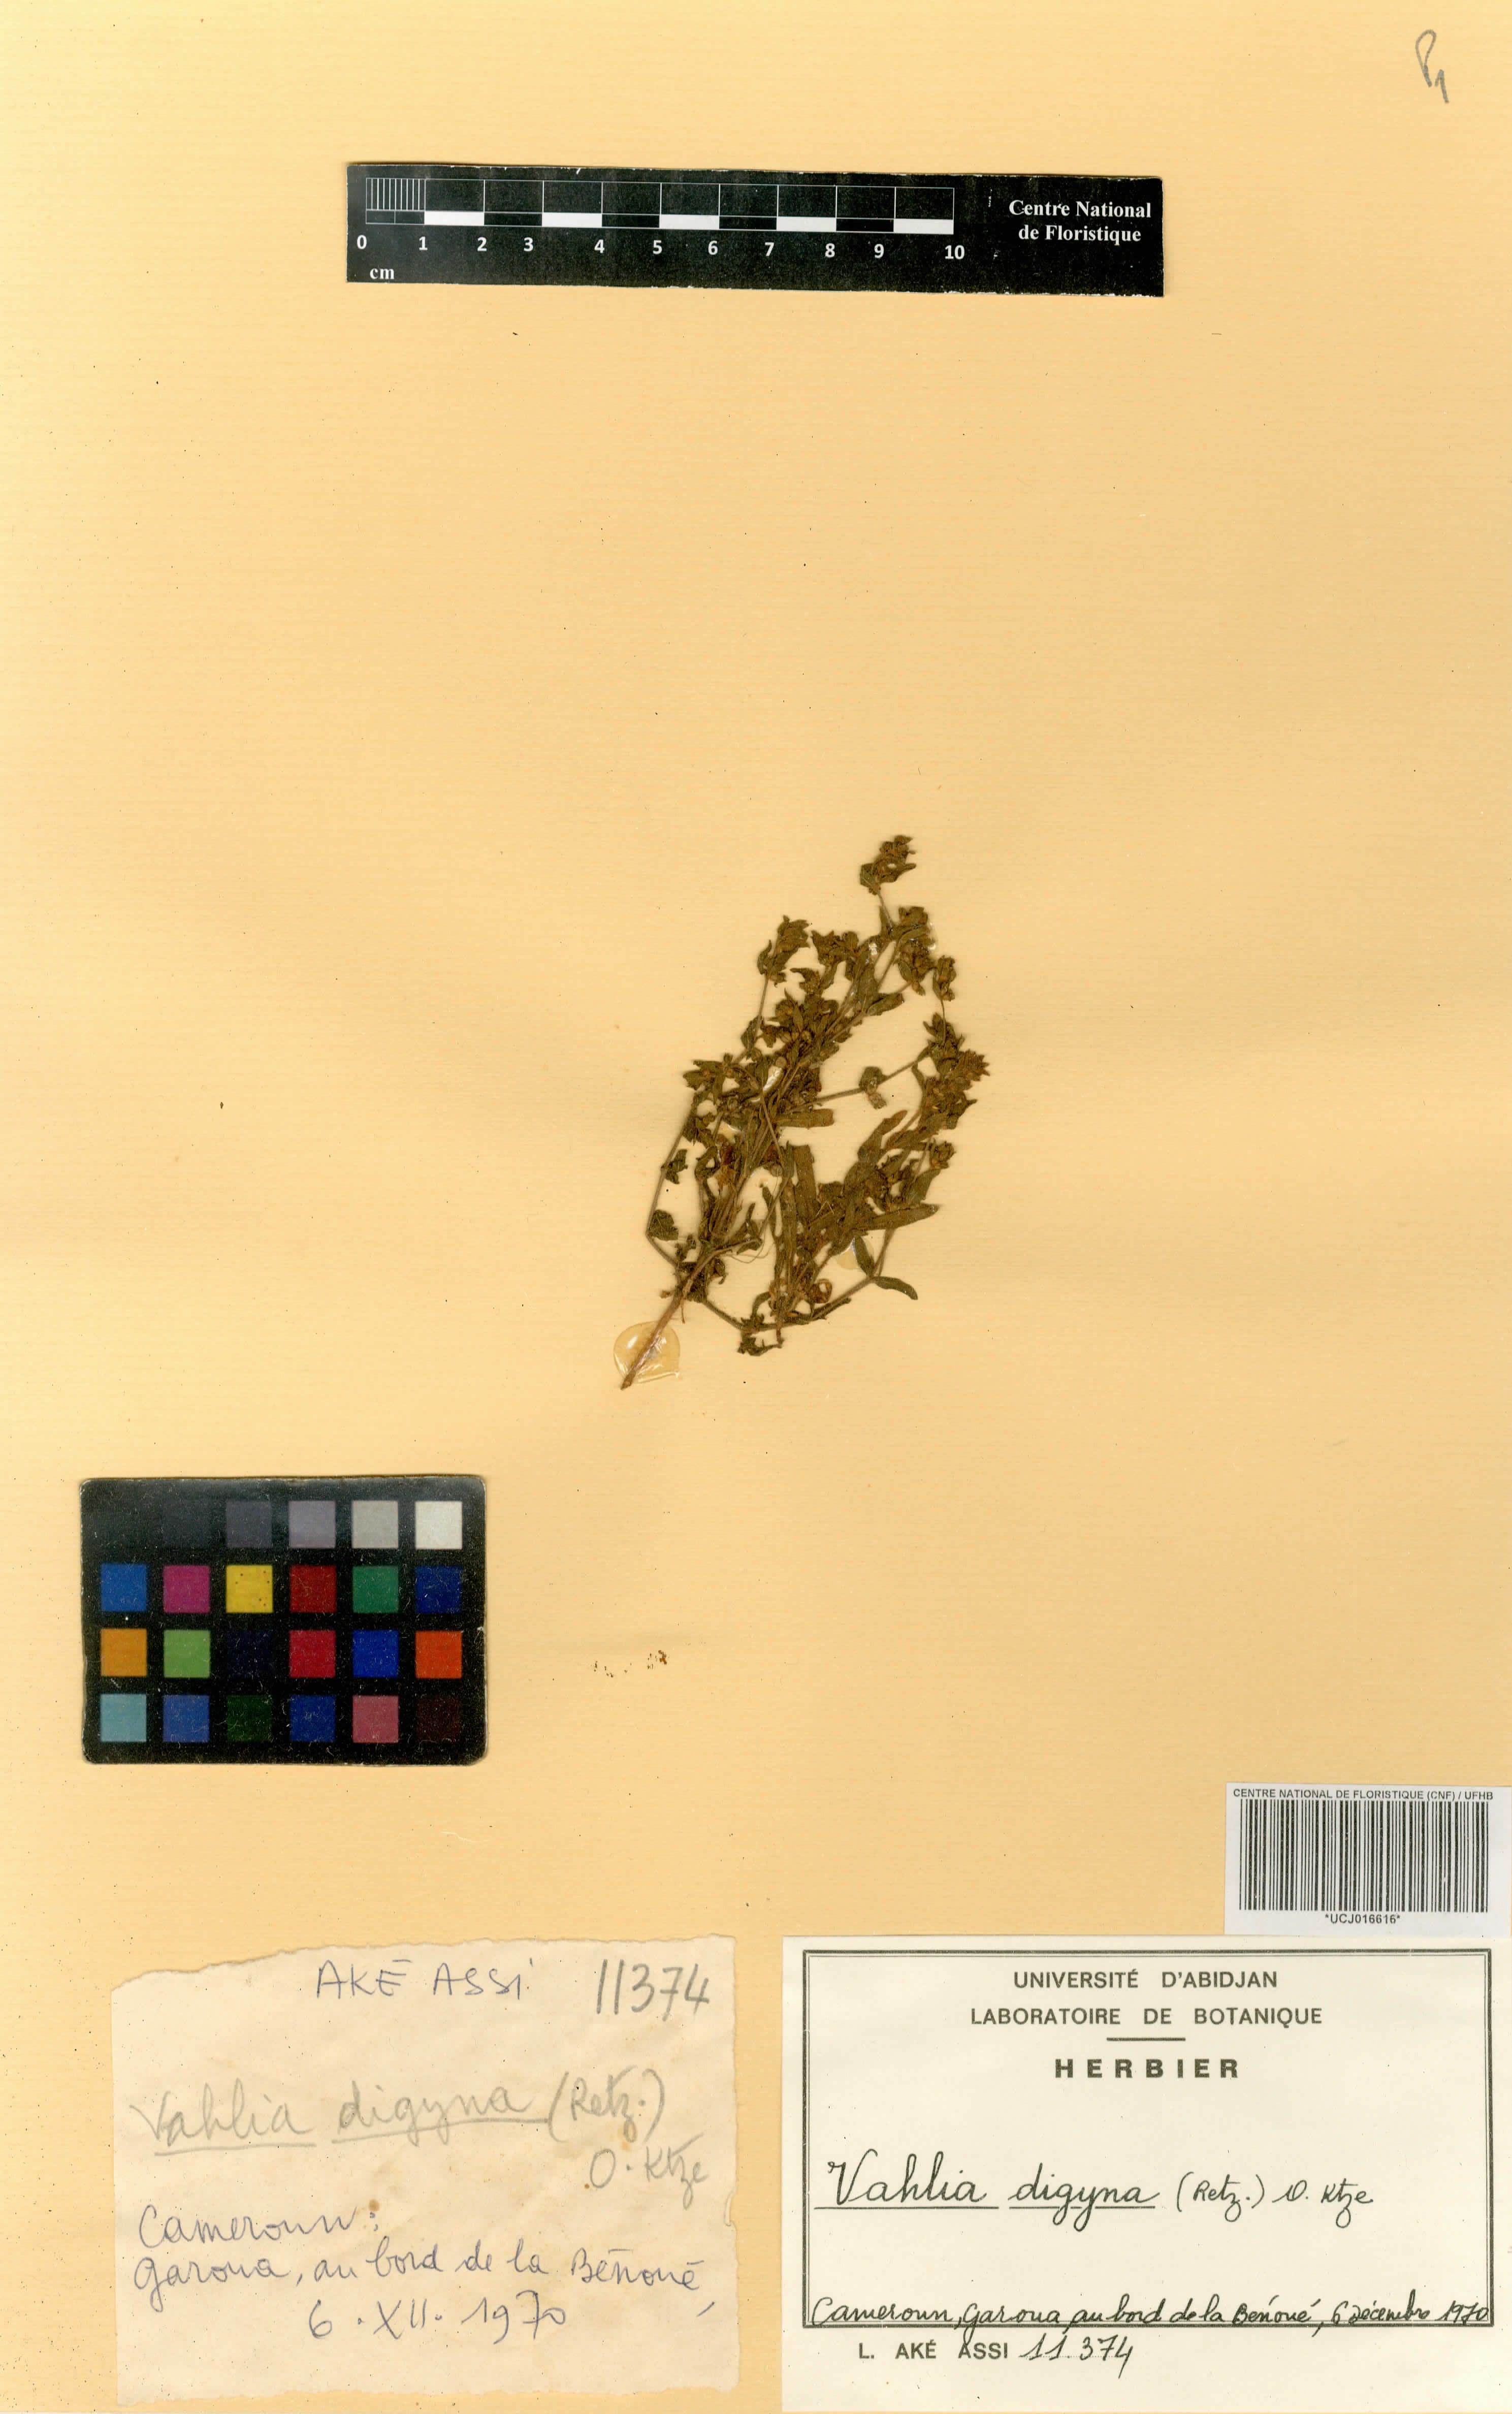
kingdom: Plantae
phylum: Tracheophyta
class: Magnoliopsida
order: Saxifragales
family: Saxifragaceae
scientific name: Saxifragaceae
